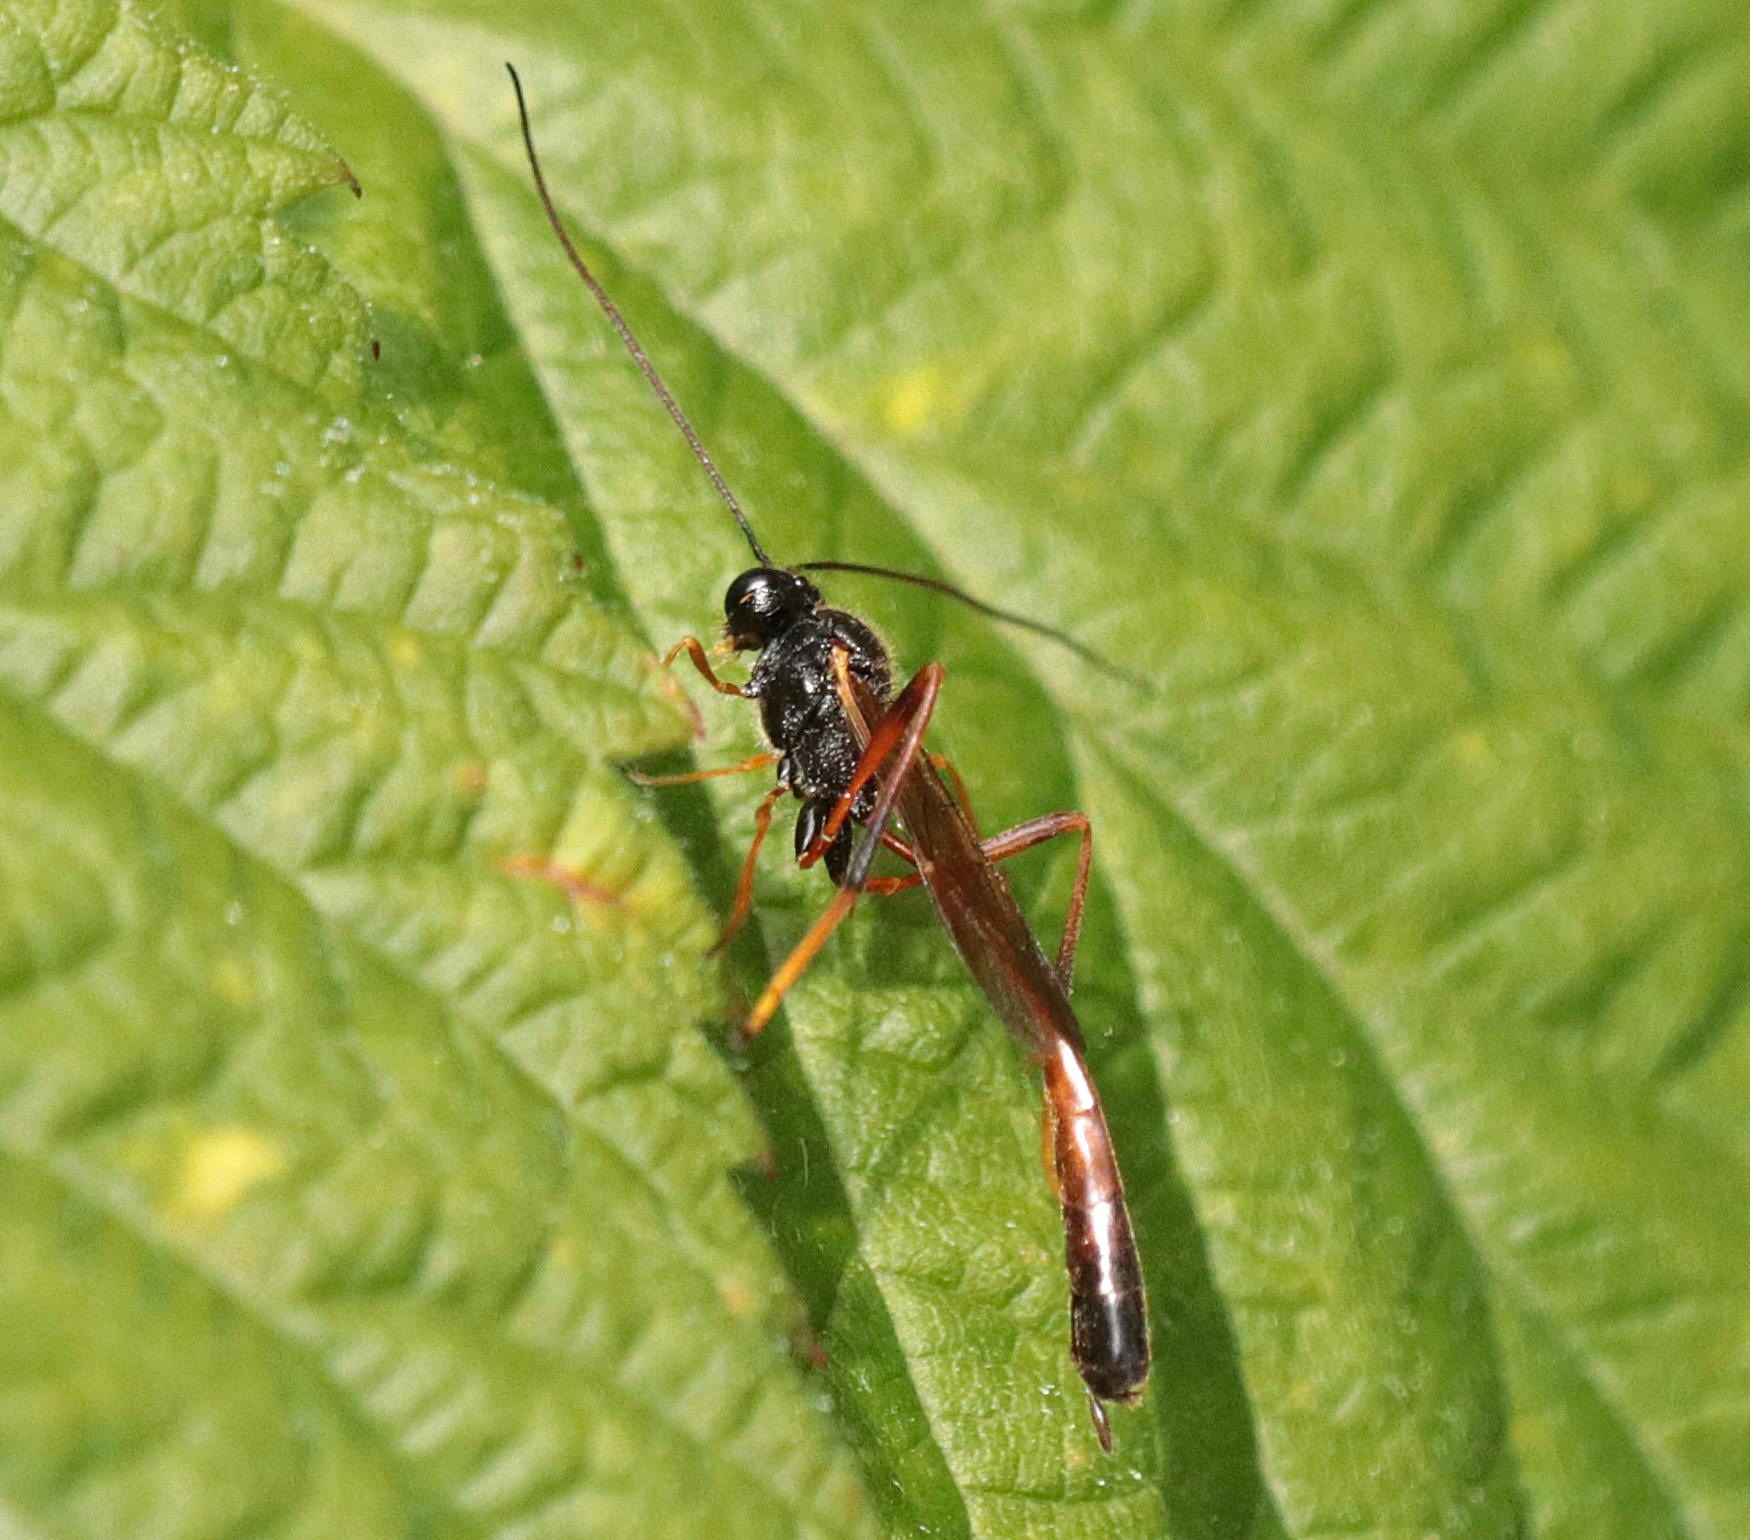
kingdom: Animalia
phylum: Arthropoda
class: Insecta
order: Hymenoptera
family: Ichneumonidae
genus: Heteropelma
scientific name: Heteropelma megarthrum
